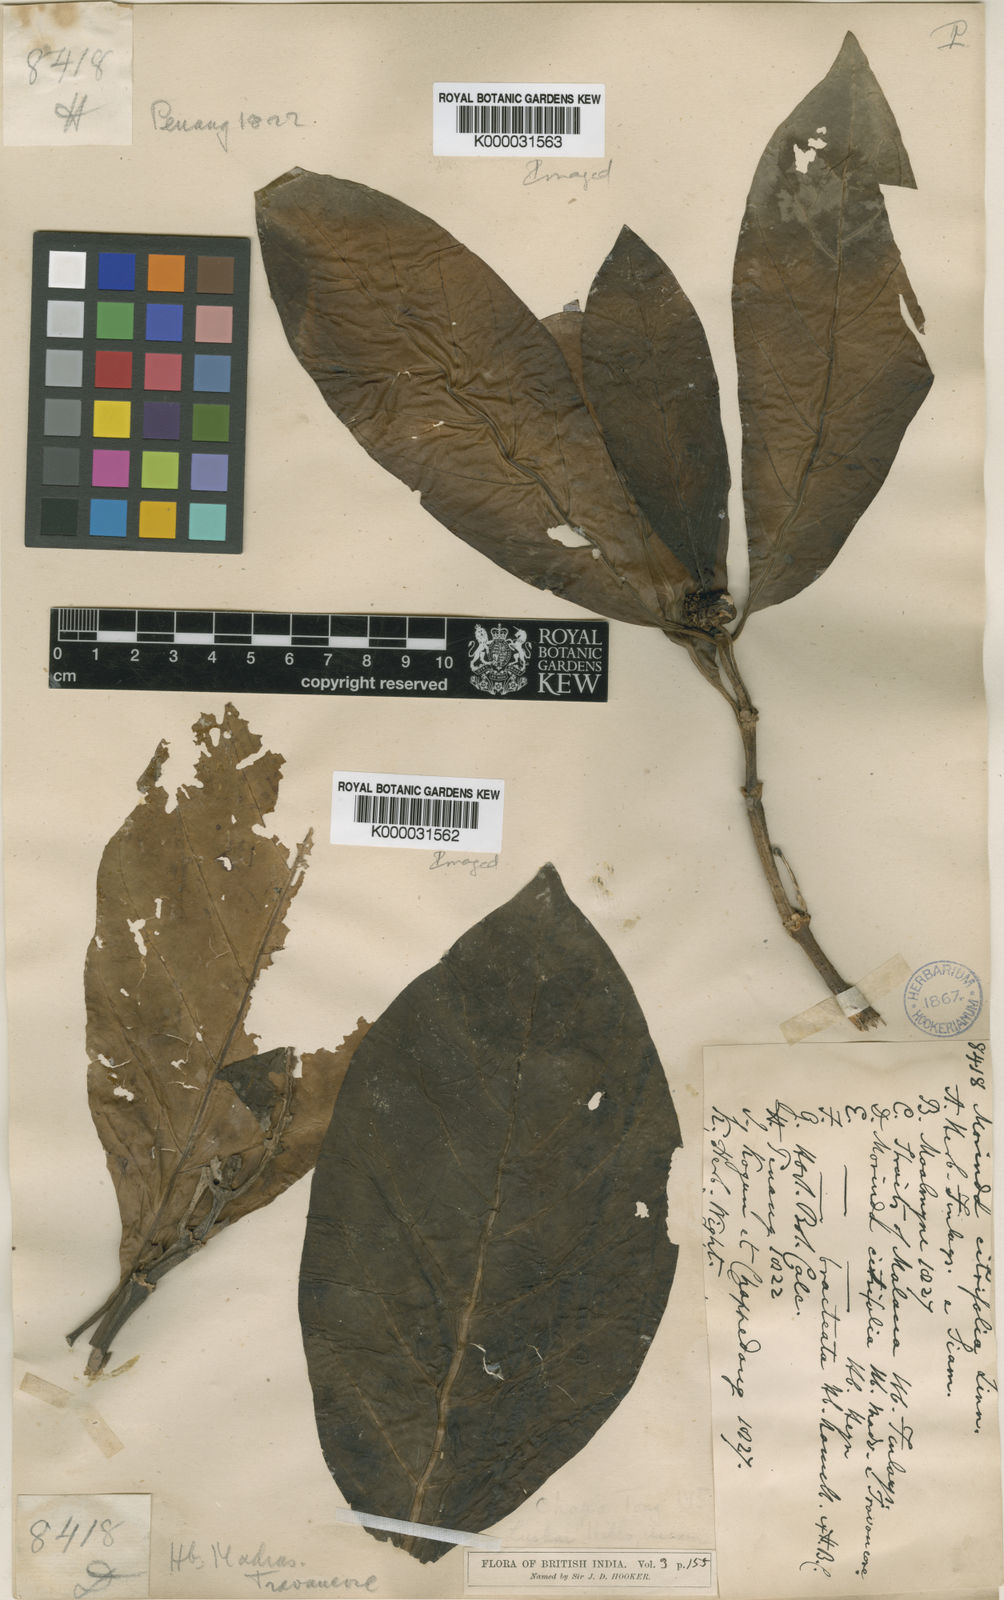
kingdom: Plantae
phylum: Tracheophyta
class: Magnoliopsida
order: Gentianales
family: Rubiaceae
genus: Morinda
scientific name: Morinda citrifolia
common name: Indian-mulberry
